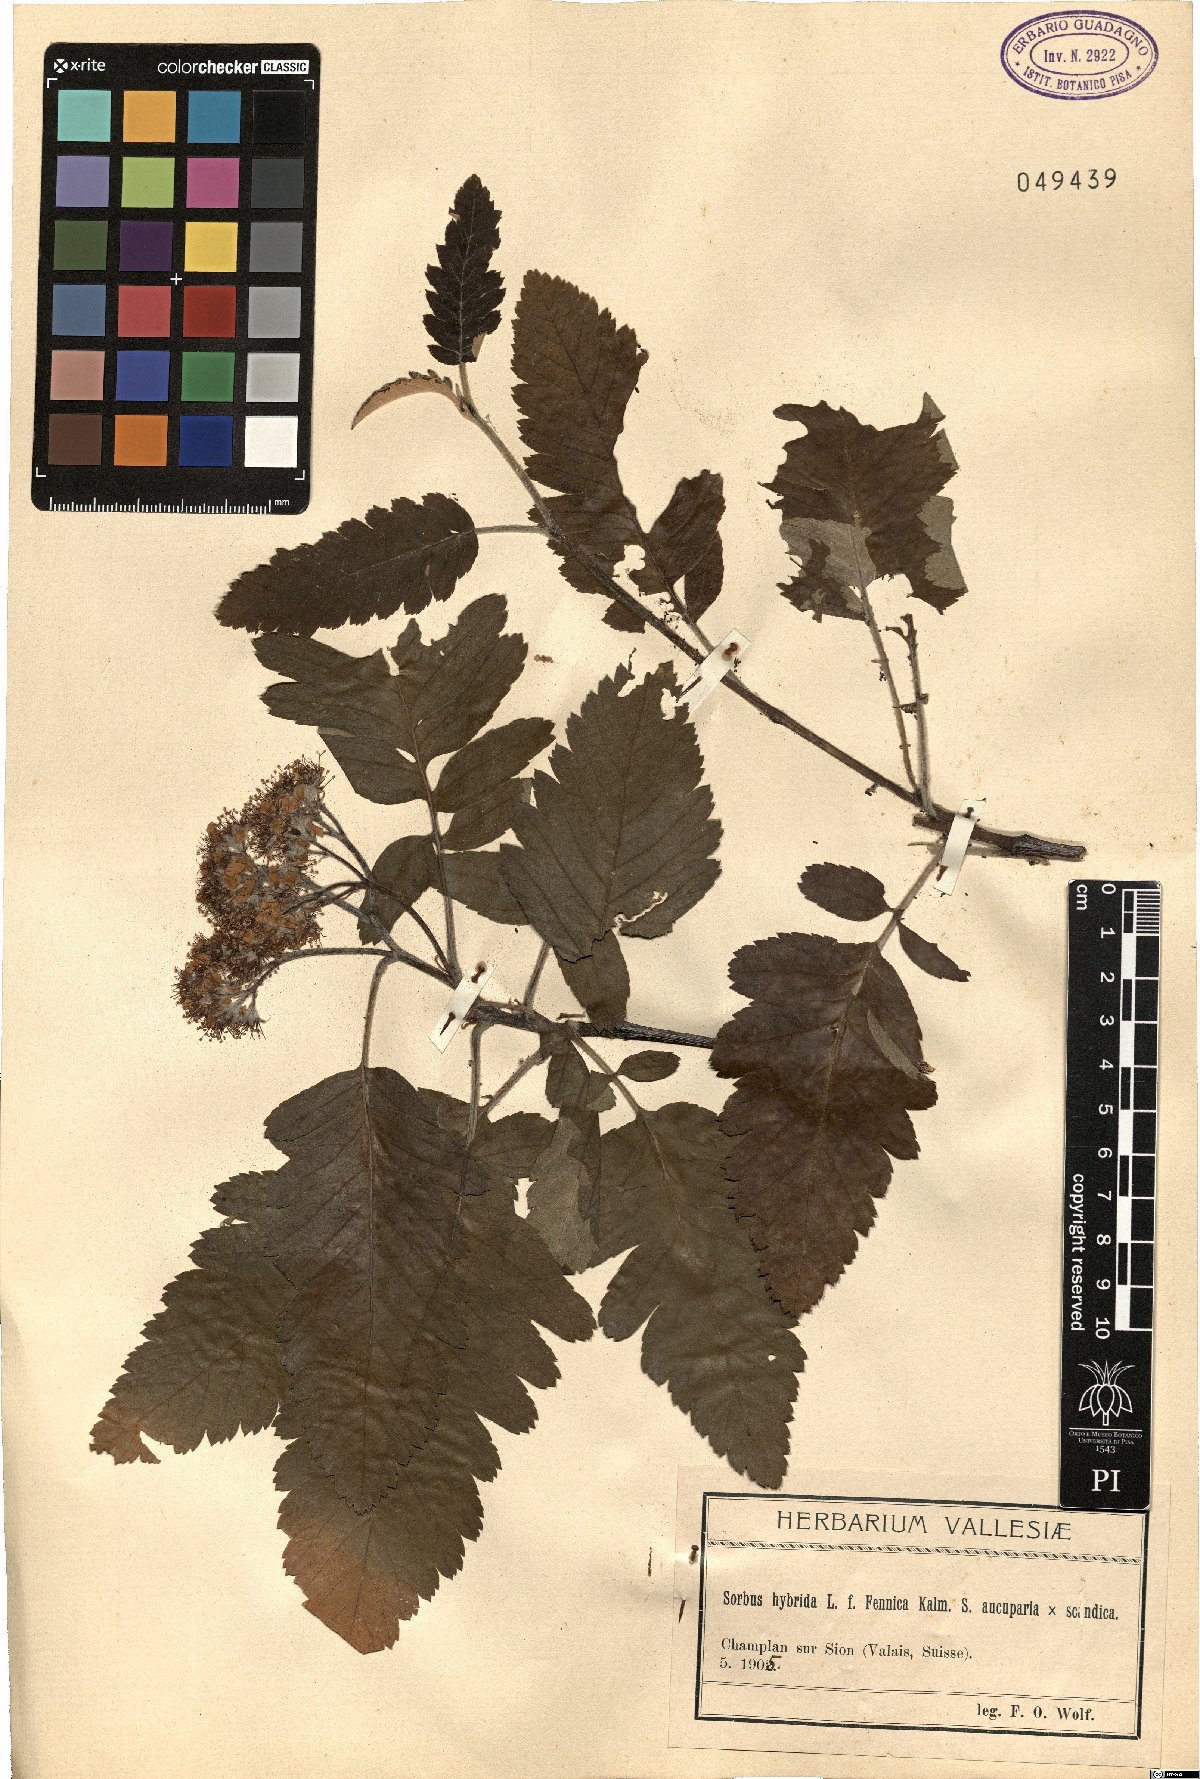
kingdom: Plantae
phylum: Tracheophyta
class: Magnoliopsida
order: Rosales
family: Rosaceae
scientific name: Rosaceae
